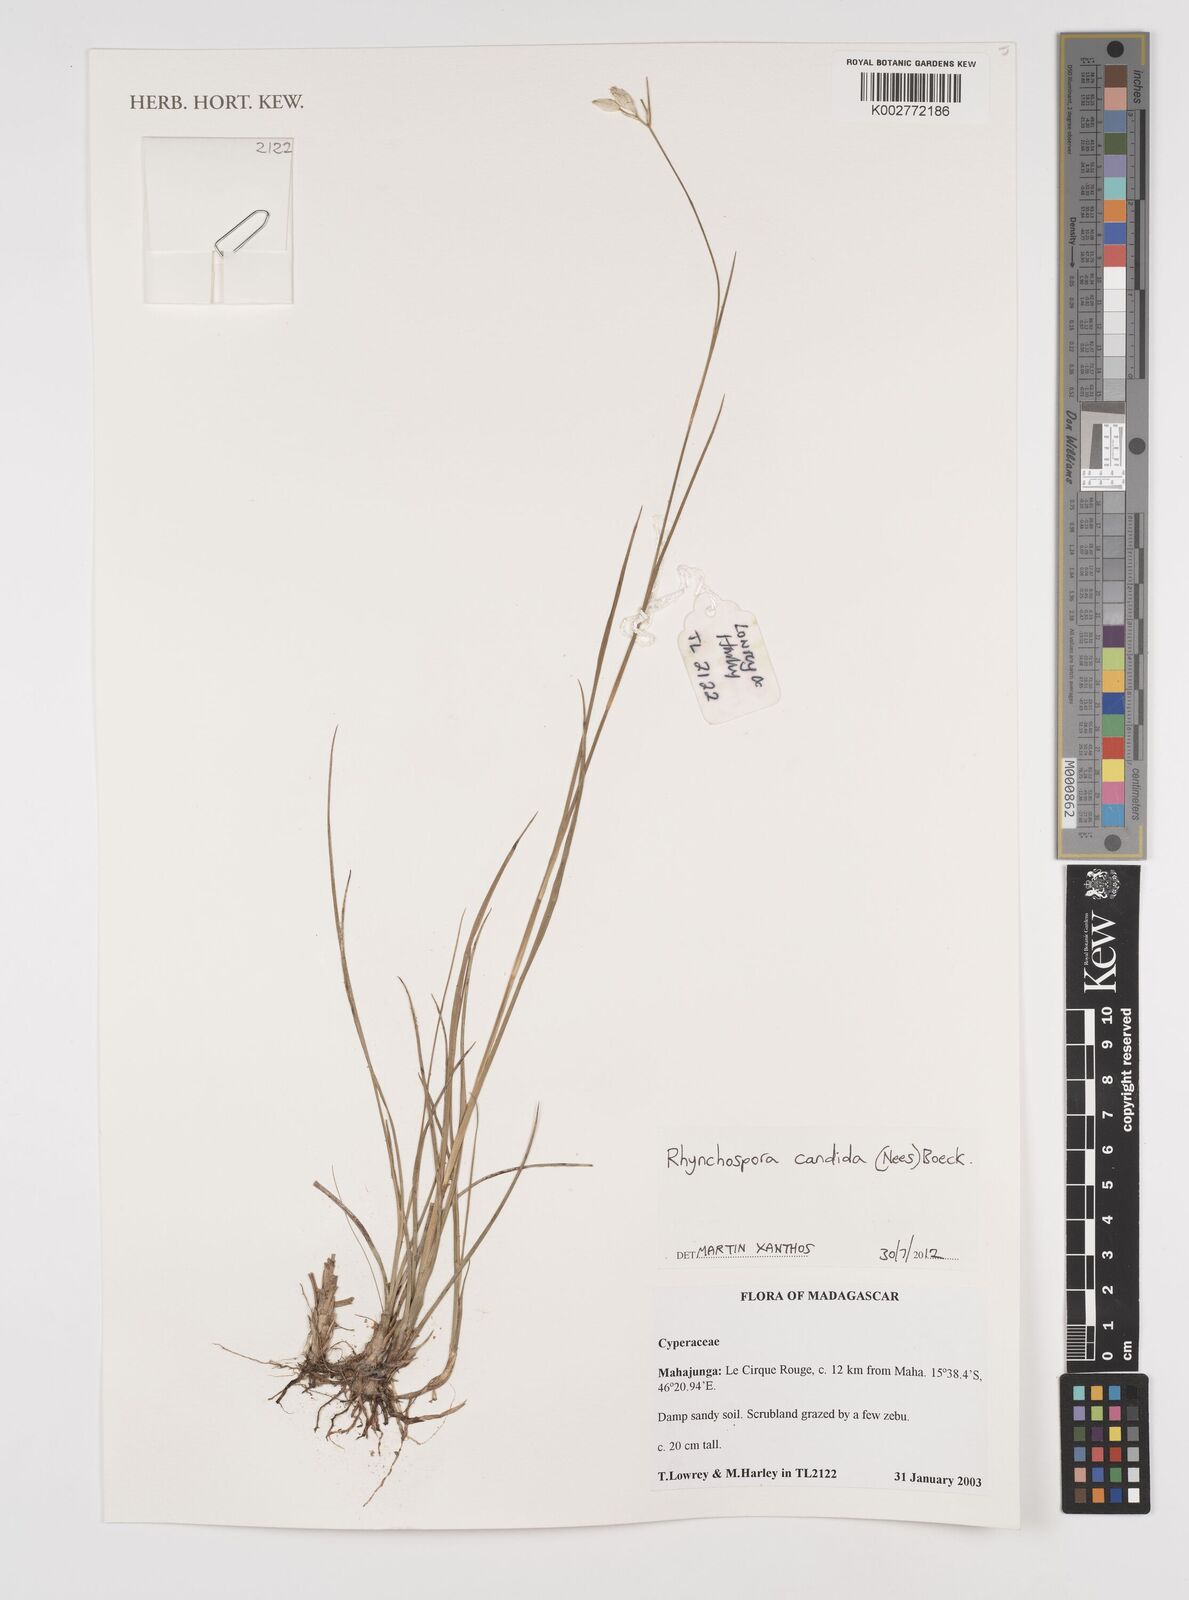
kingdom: Plantae
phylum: Tracheophyta
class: Liliopsida
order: Poales
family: Cyperaceae
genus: Rhynchospora
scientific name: Rhynchospora candida
